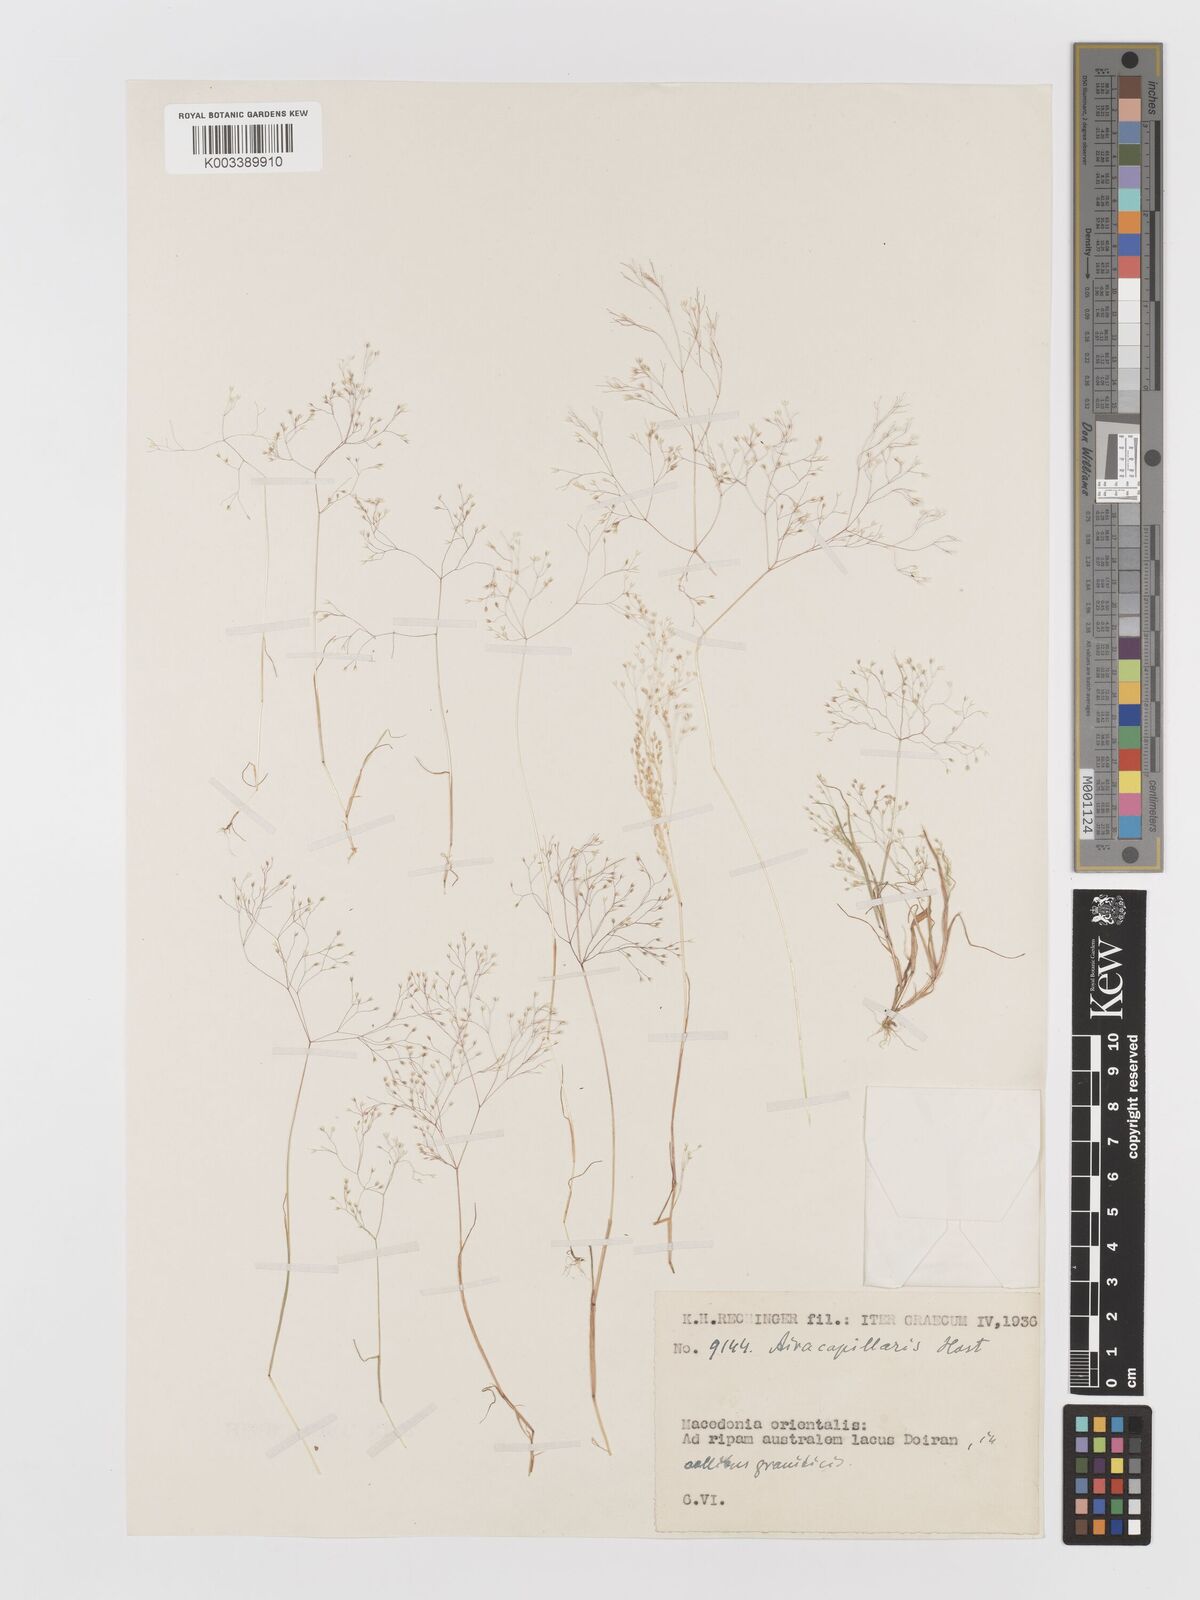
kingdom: Plantae
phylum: Tracheophyta
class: Liliopsida
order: Poales
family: Poaceae
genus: Aira
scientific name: Aira elegans
